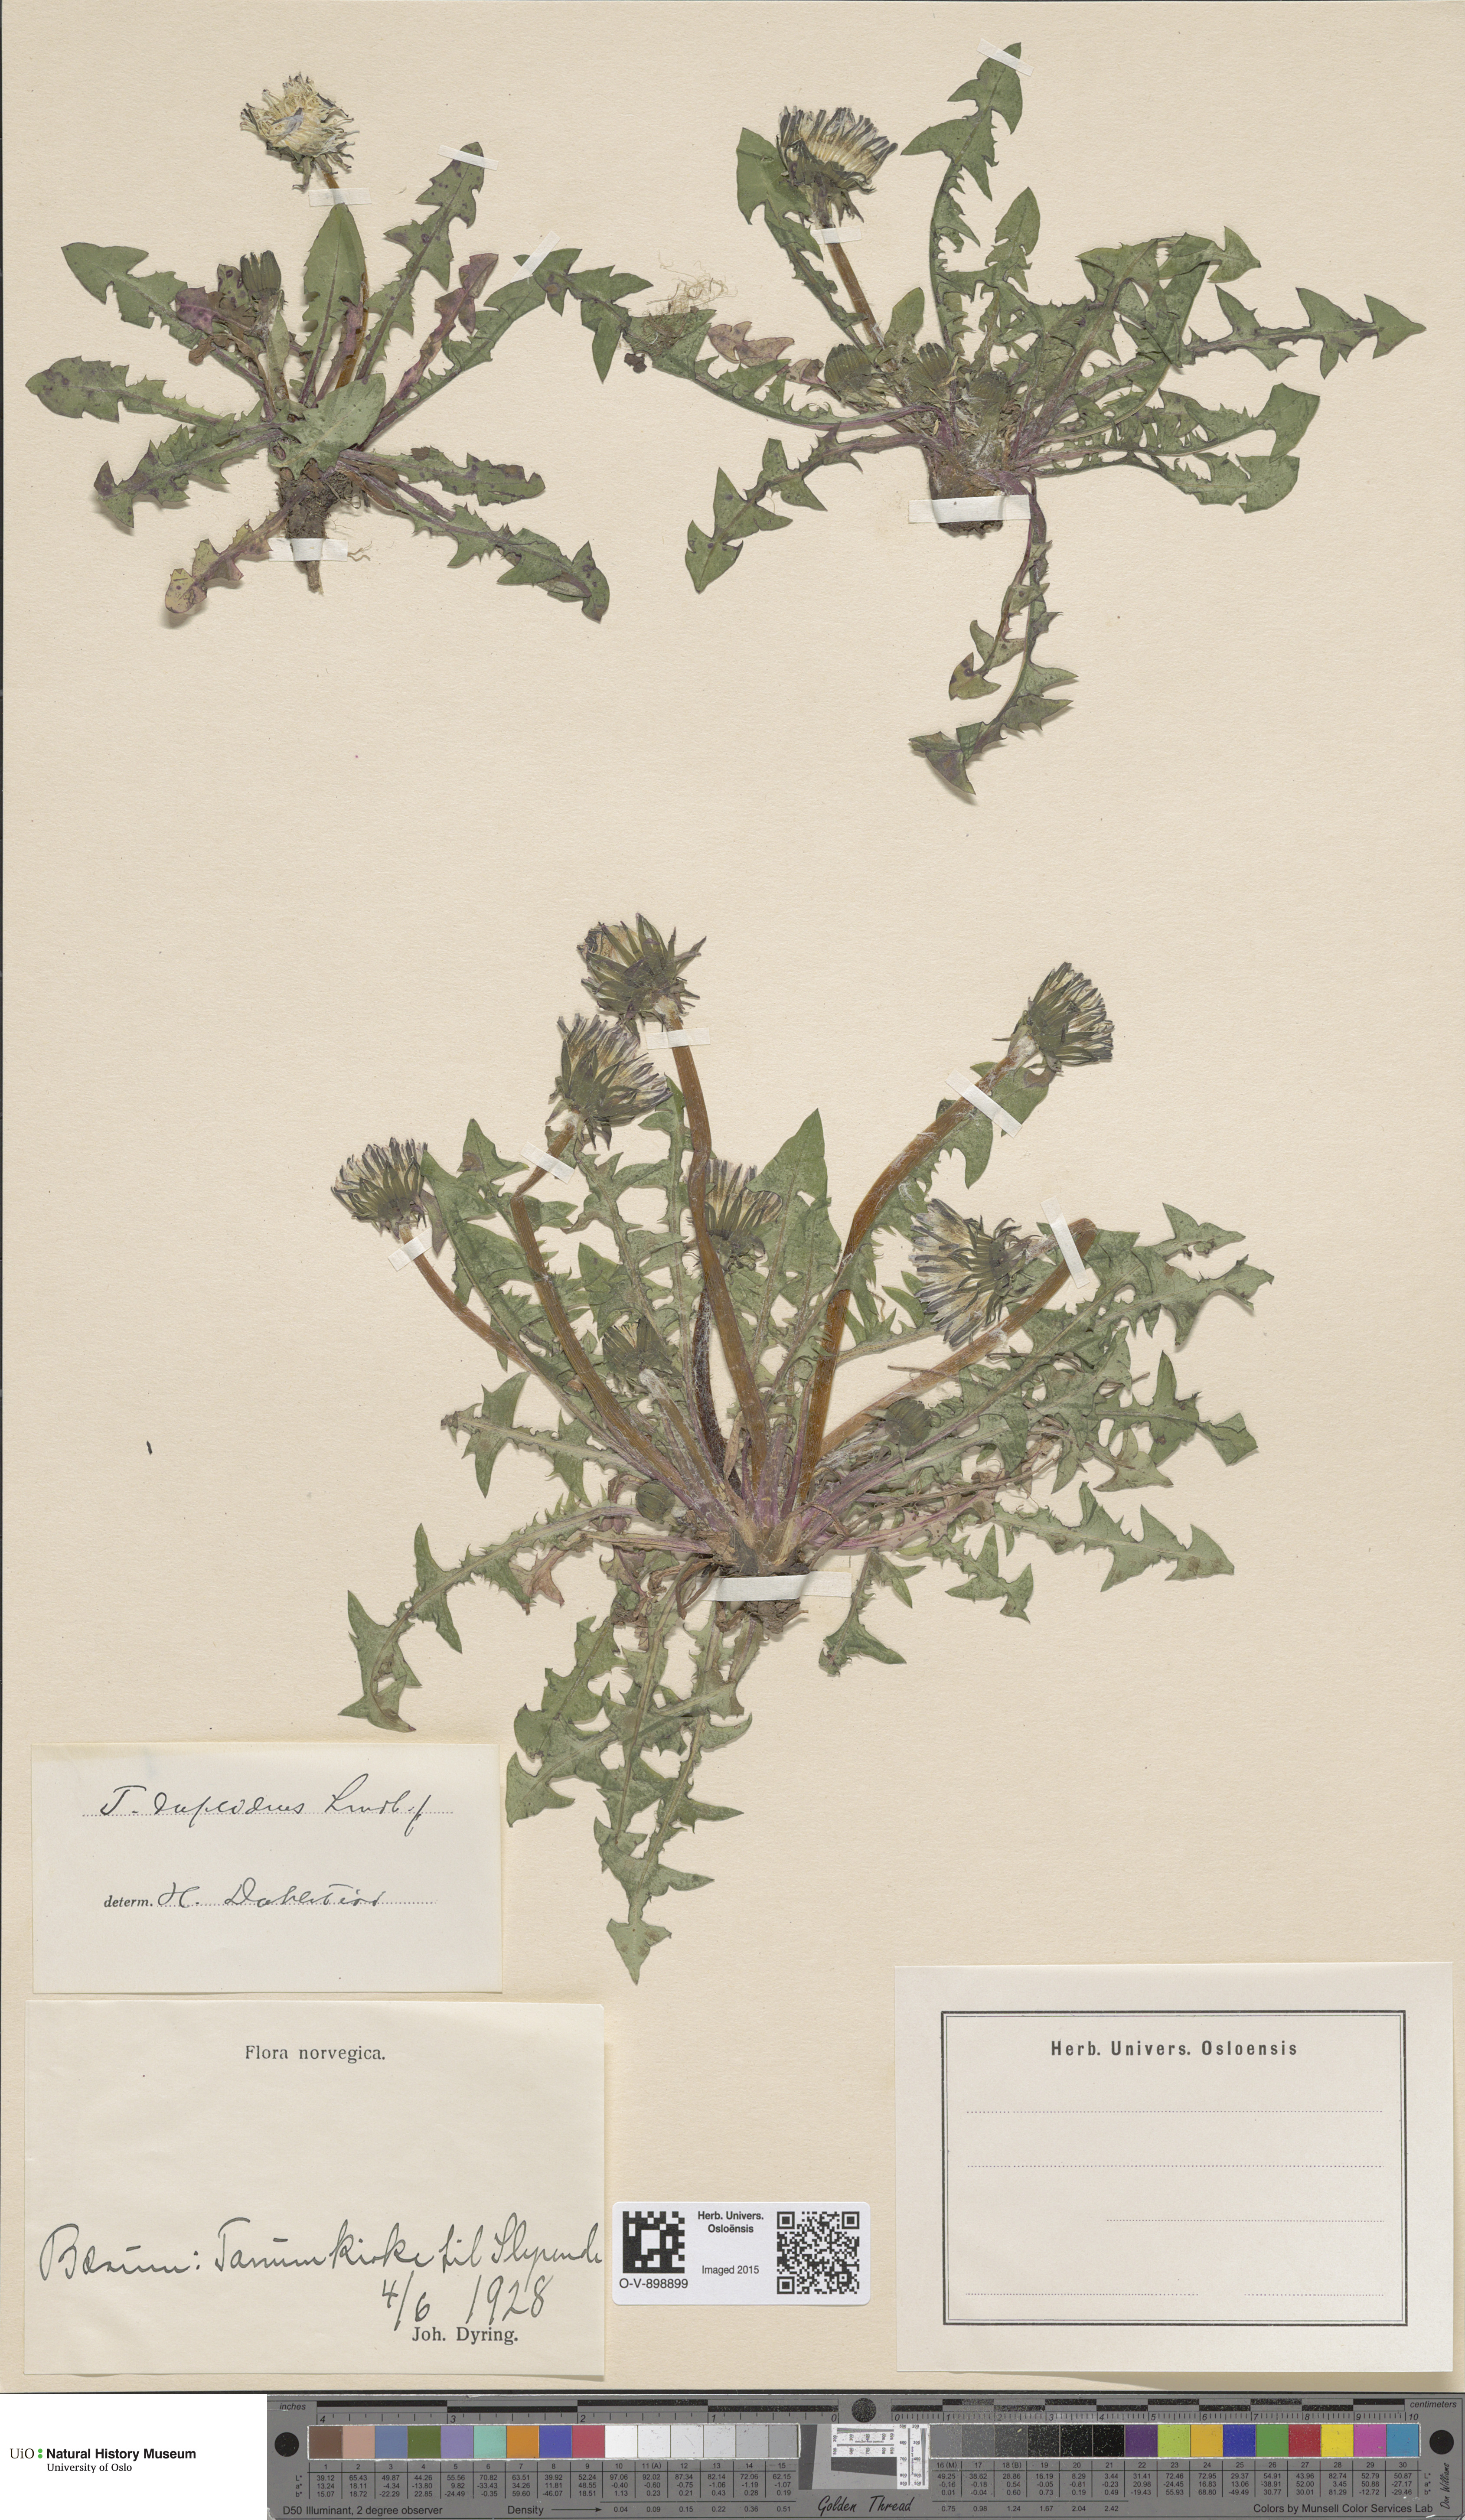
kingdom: Plantae
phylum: Tracheophyta
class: Magnoliopsida
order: Asterales
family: Asteraceae
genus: Taraxacum
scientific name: Taraxacum ostenfeldii
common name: Ostenfeld's dandelion
